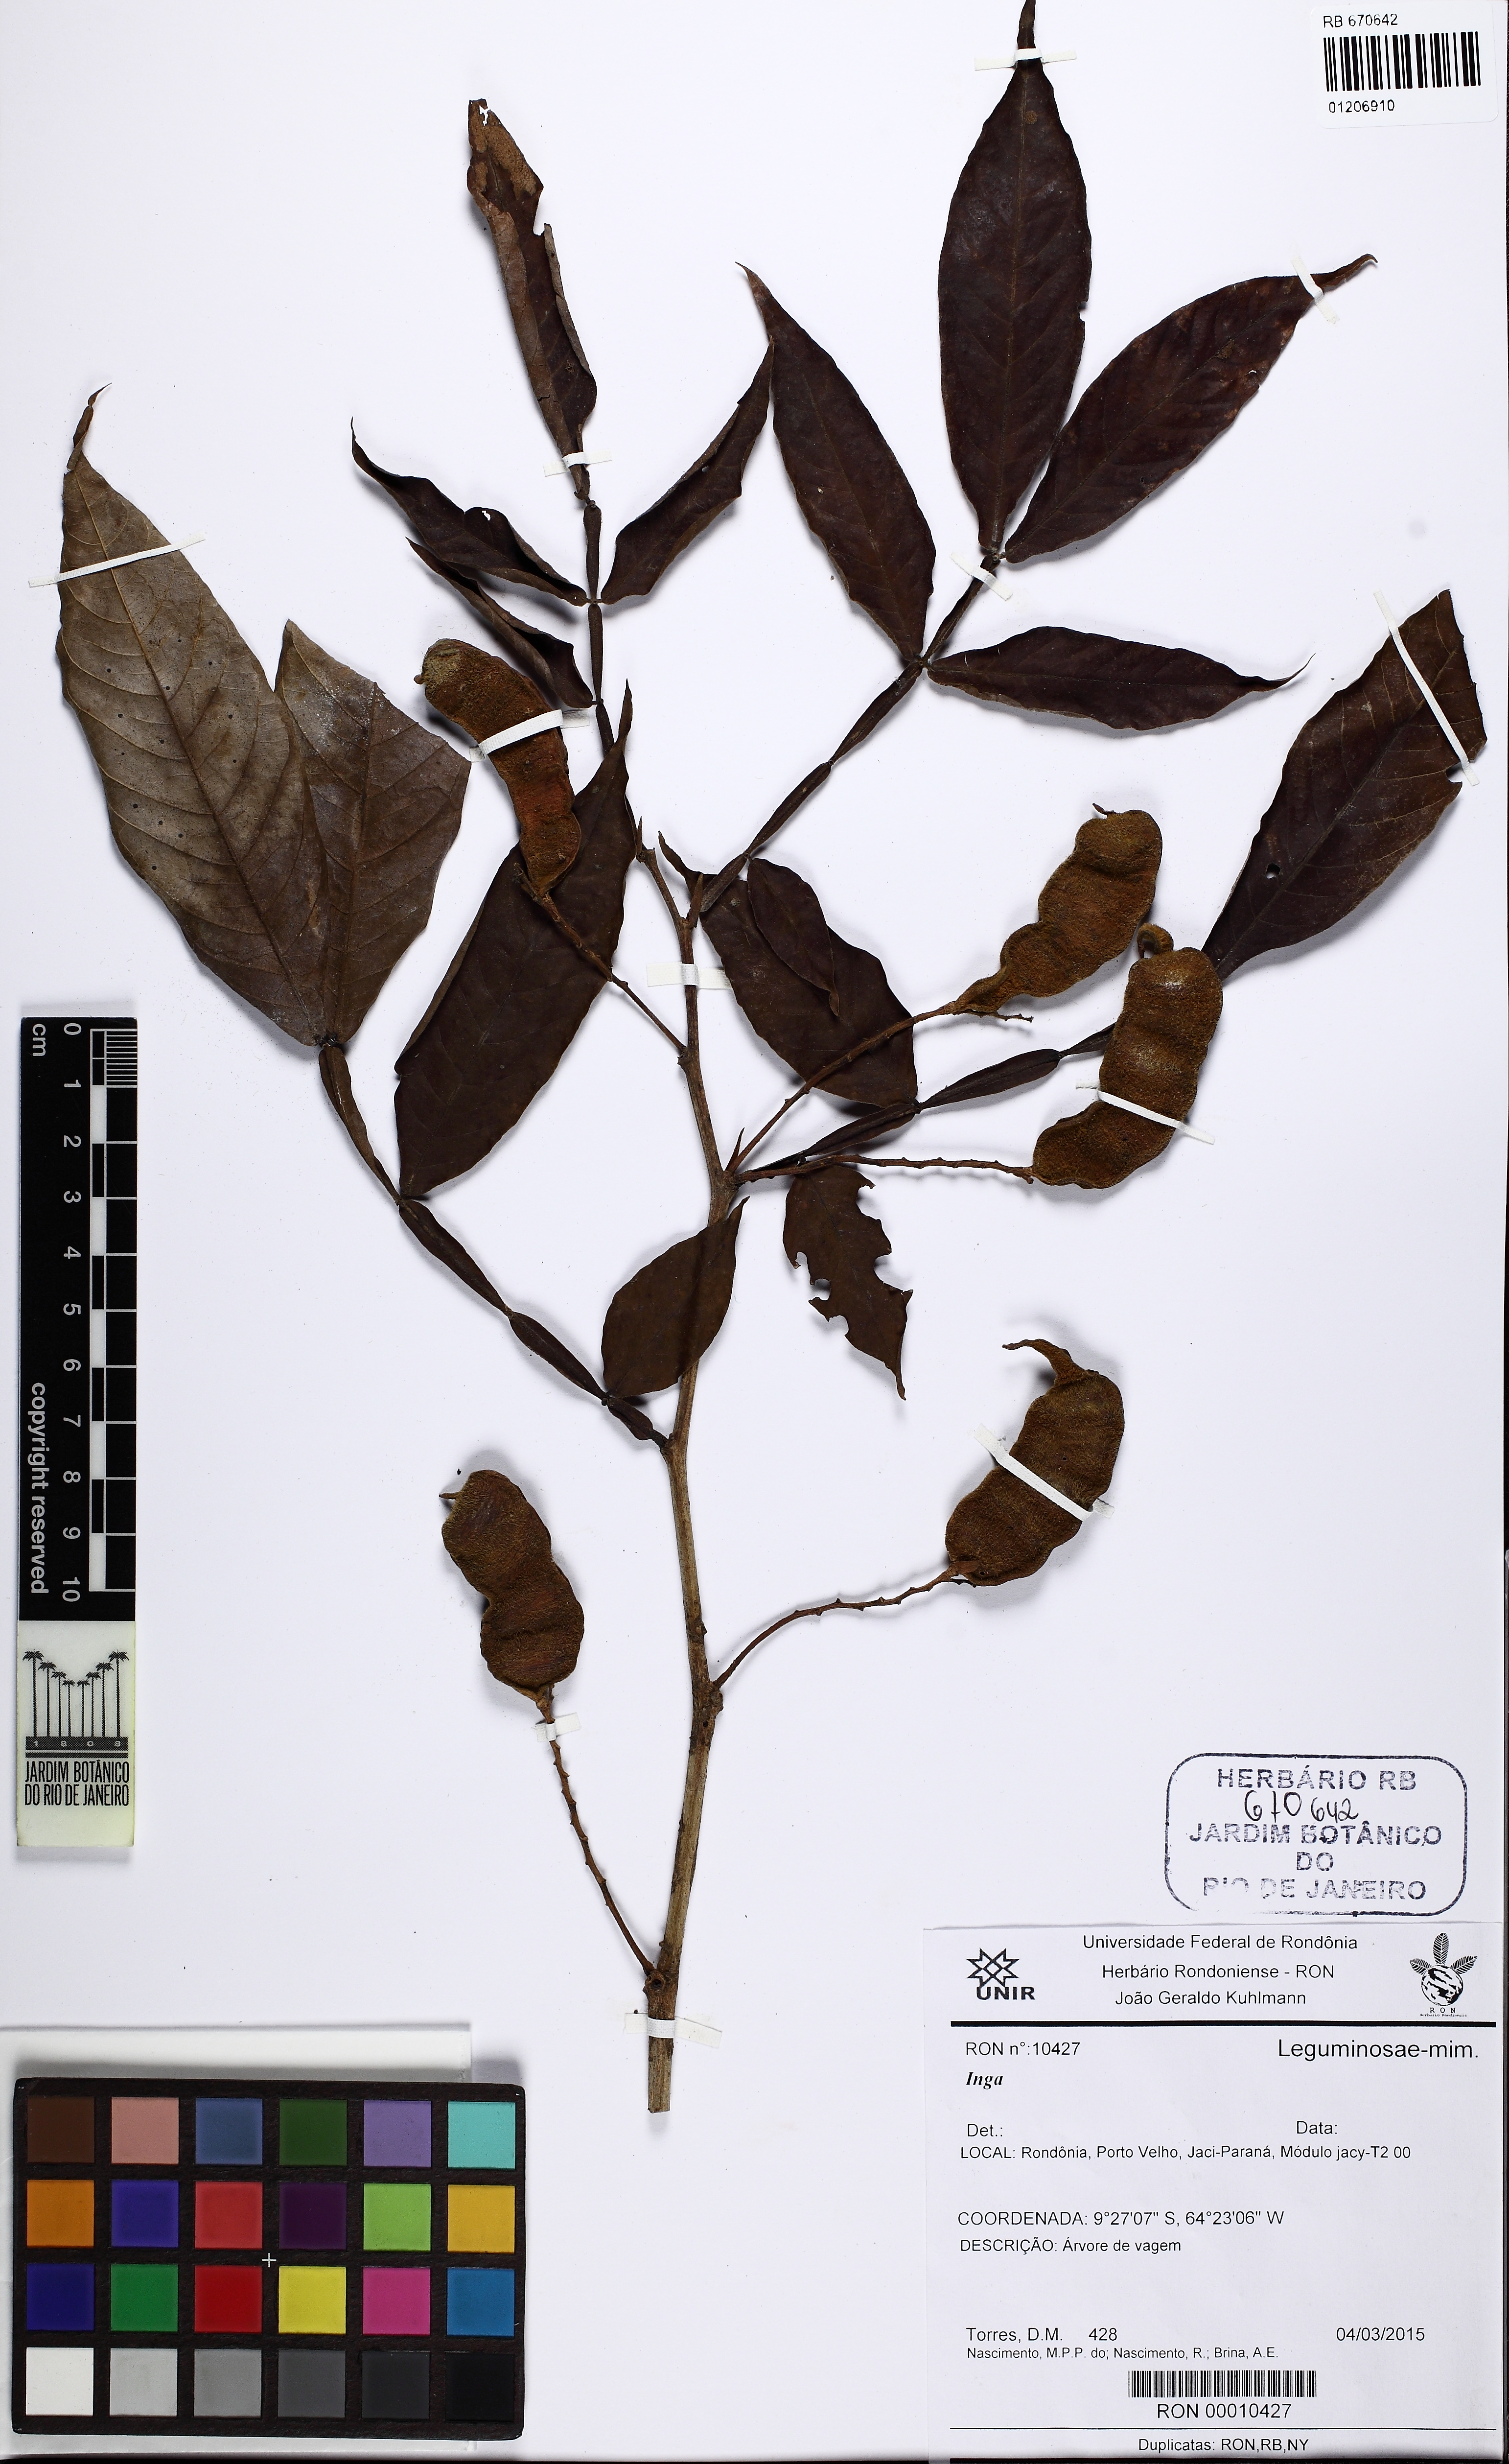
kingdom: Plantae
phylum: Tracheophyta
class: Magnoliopsida
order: Fabales
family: Fabaceae
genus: Inga
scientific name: Inga
